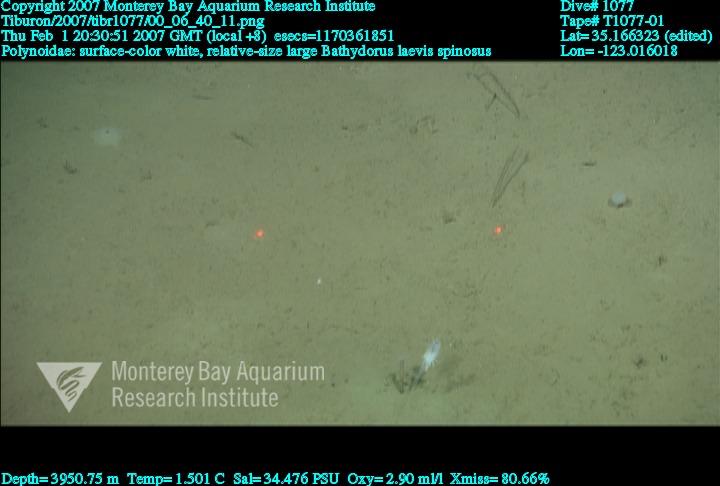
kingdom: Animalia
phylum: Porifera
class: Hexactinellida
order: Lyssacinosida
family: Rossellidae
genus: Bathydorus
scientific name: Bathydorus spinosus
